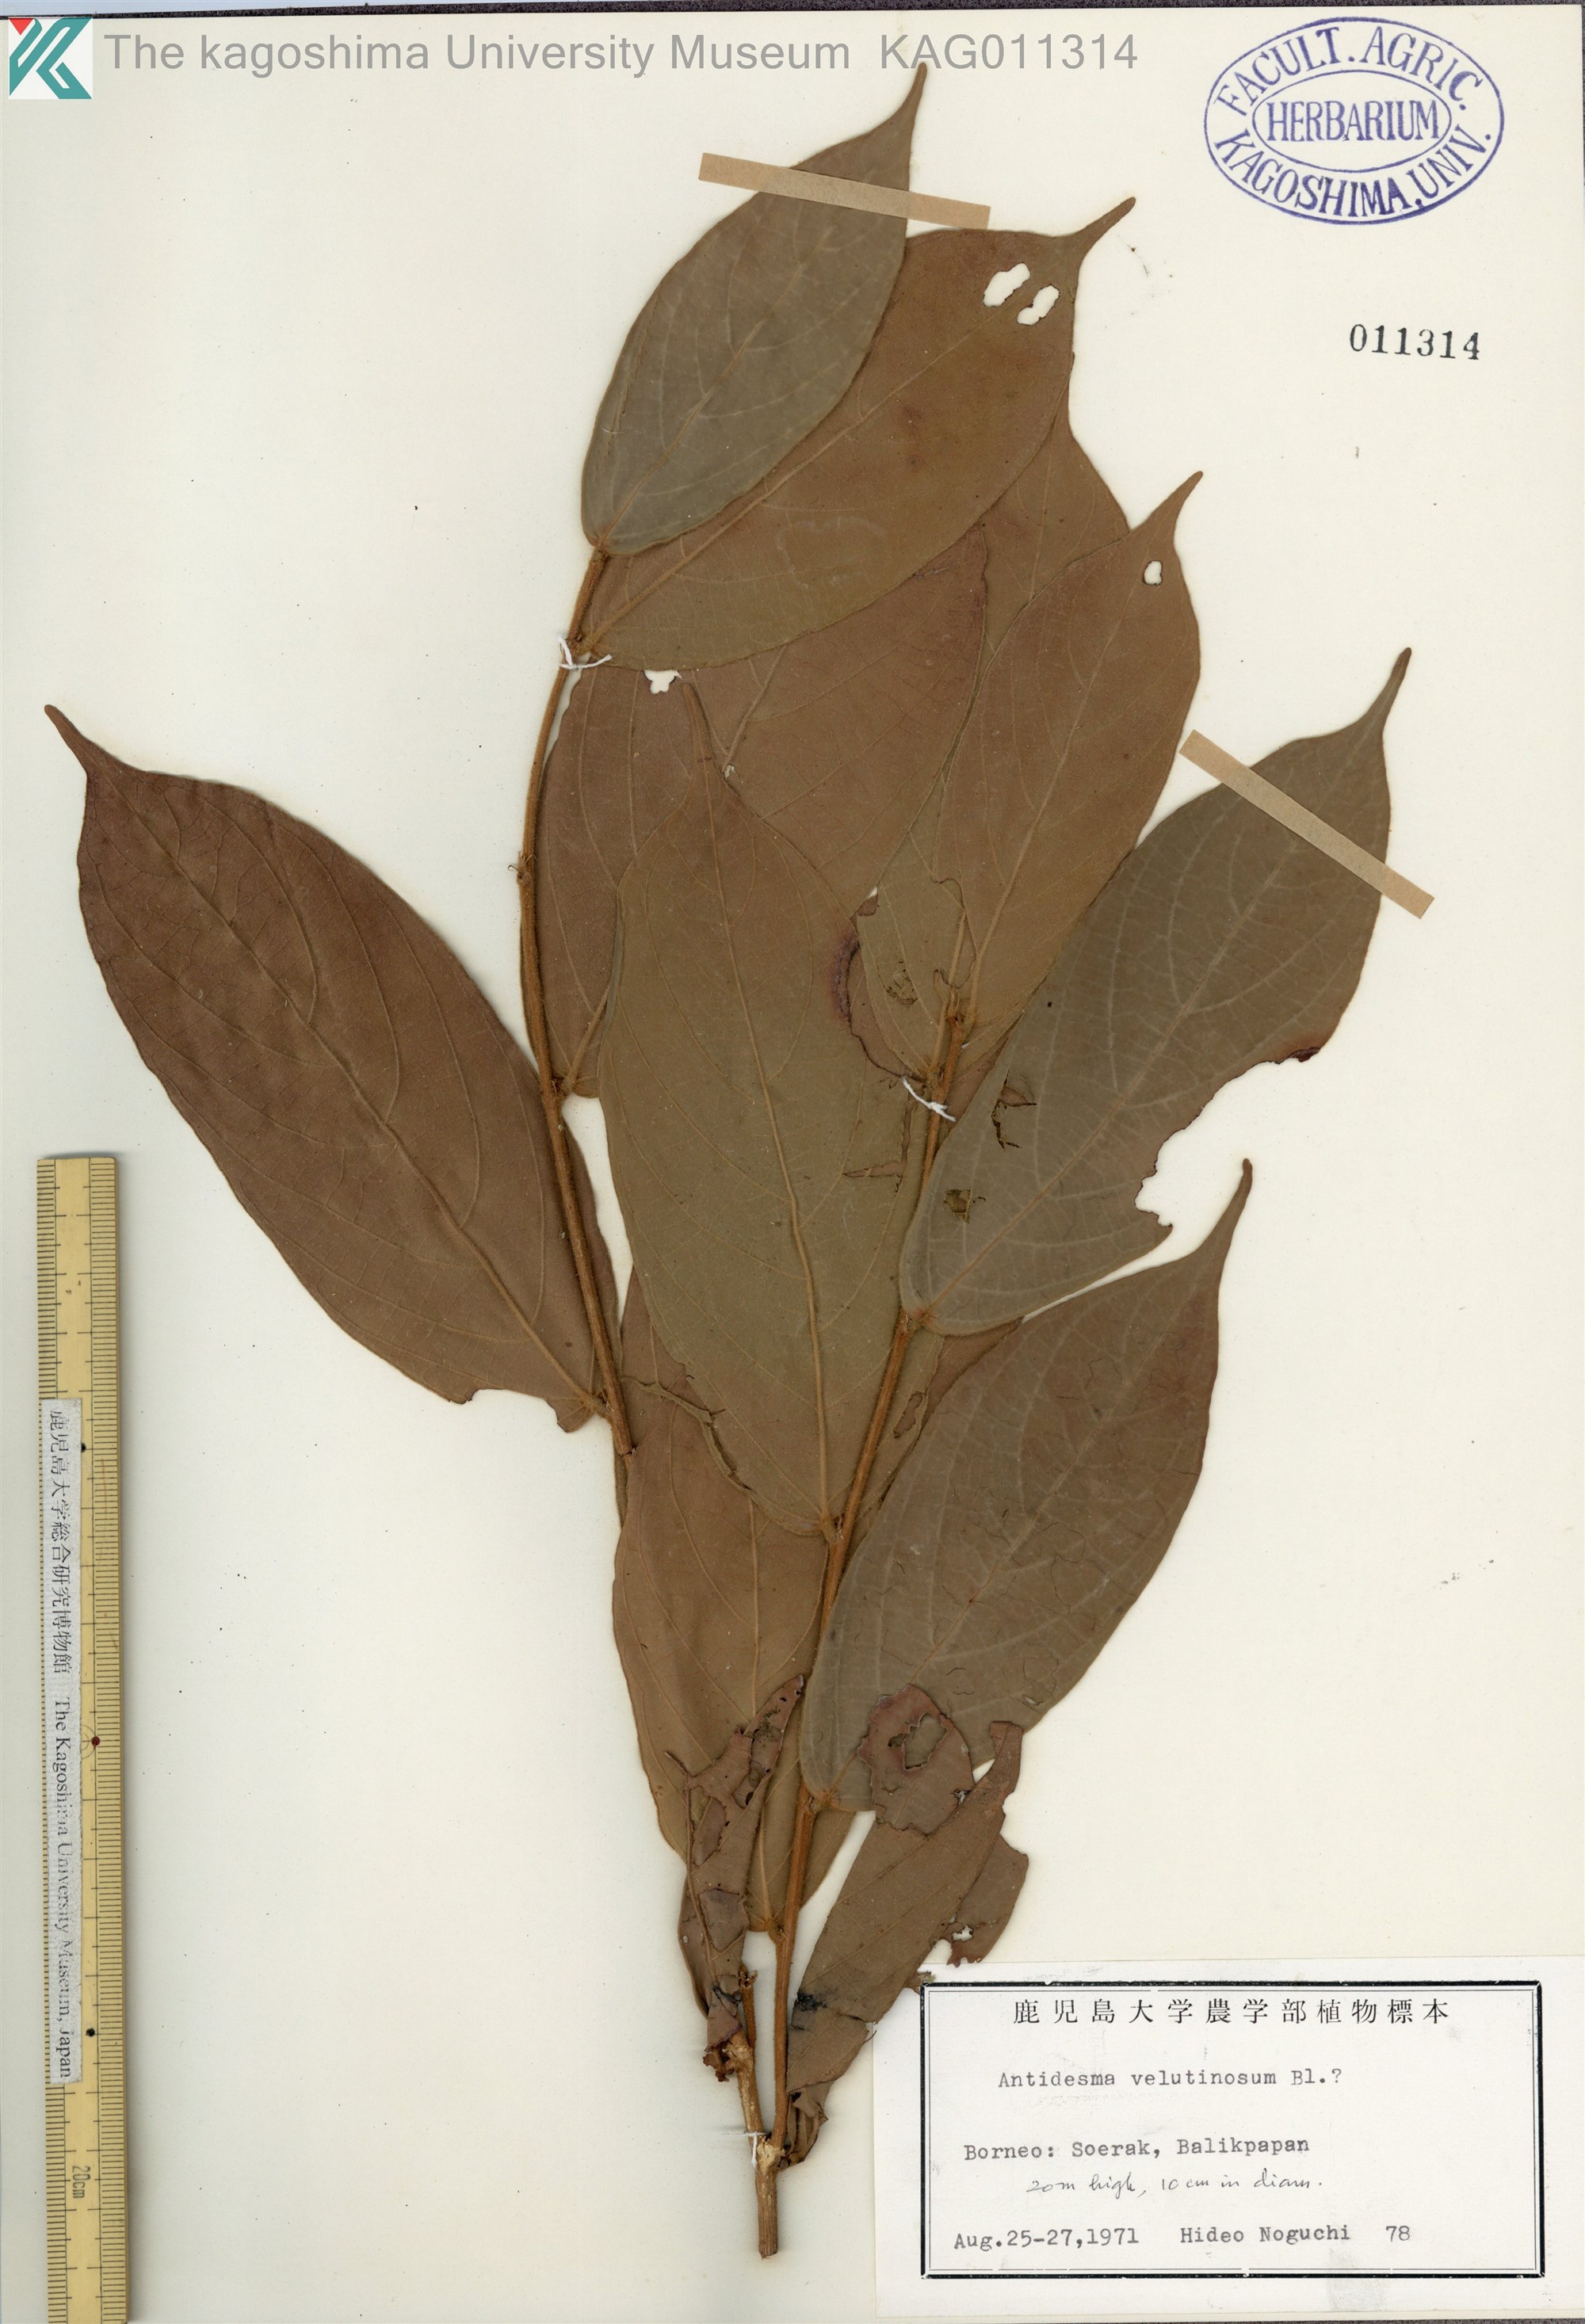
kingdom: Plantae
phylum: Tracheophyta
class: Magnoliopsida
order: Malpighiales
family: Phyllanthaceae
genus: Antidesma
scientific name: Antidesma velutinosum
